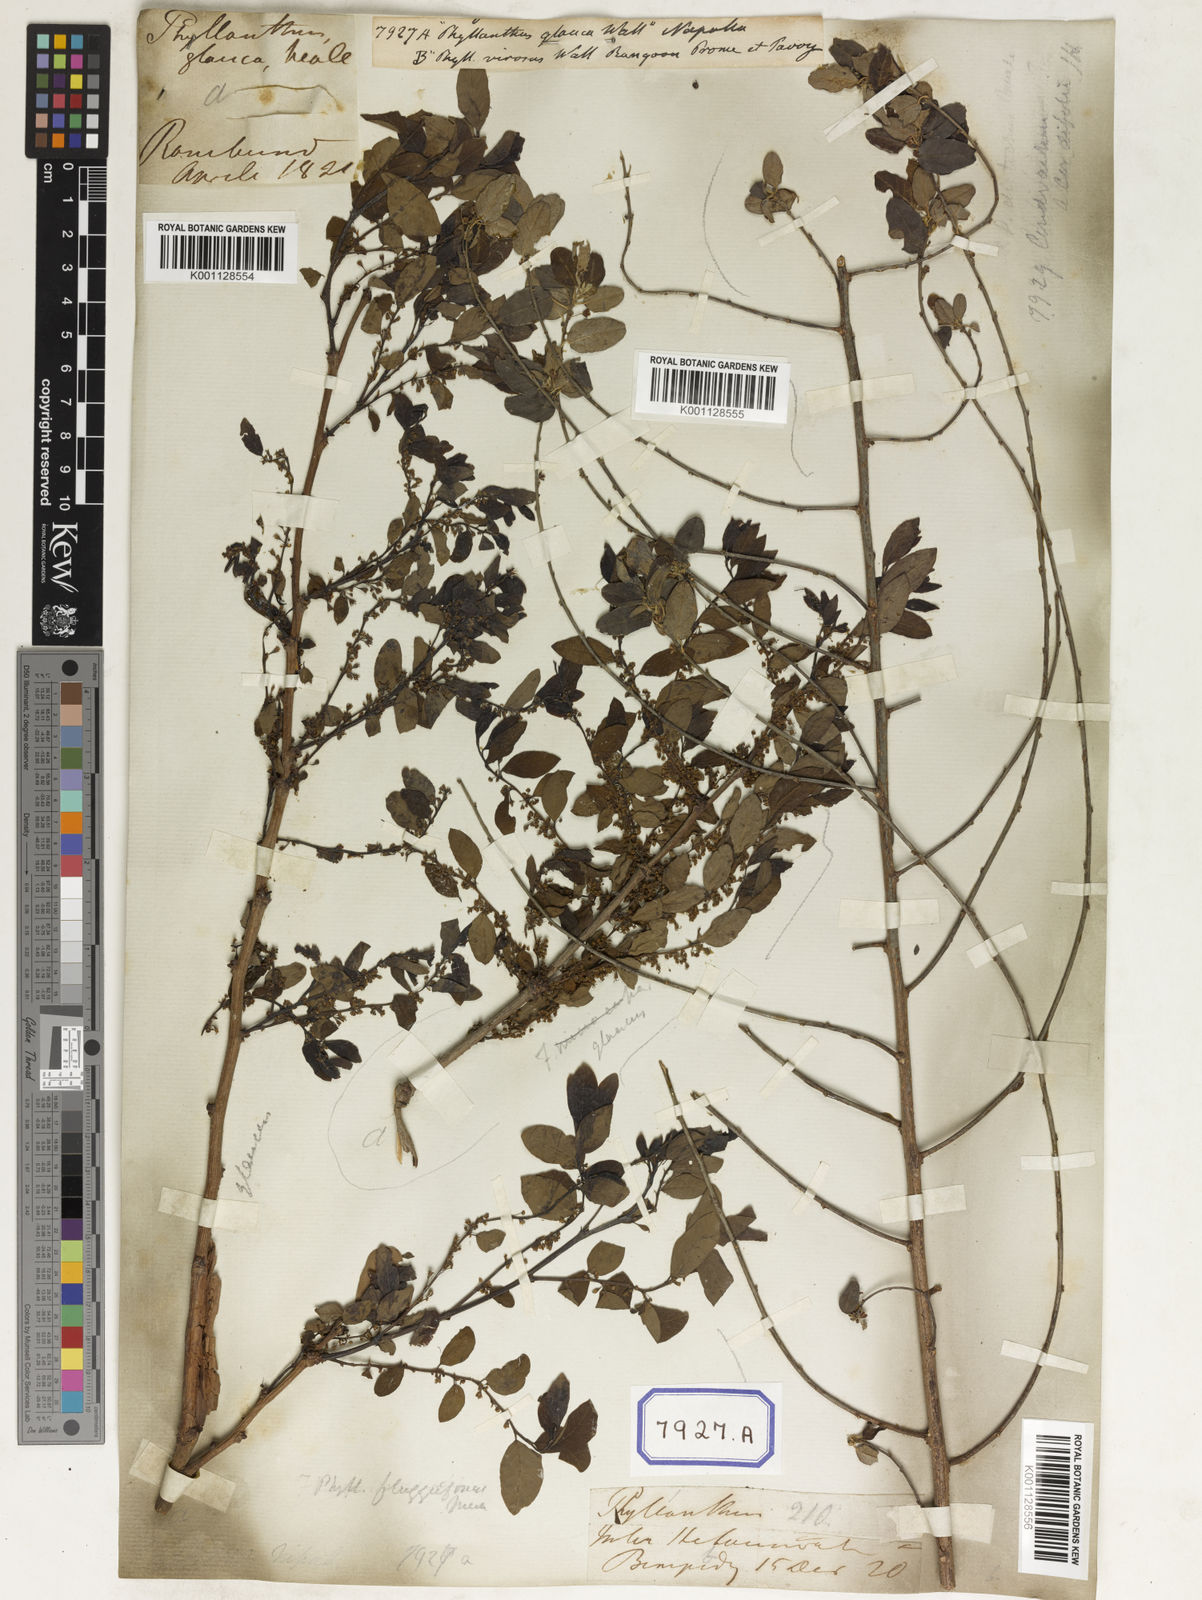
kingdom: Plantae
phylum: Tracheophyta
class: Magnoliopsida
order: Malpighiales
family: Euphorbiaceae
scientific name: Euphorbiaceae
